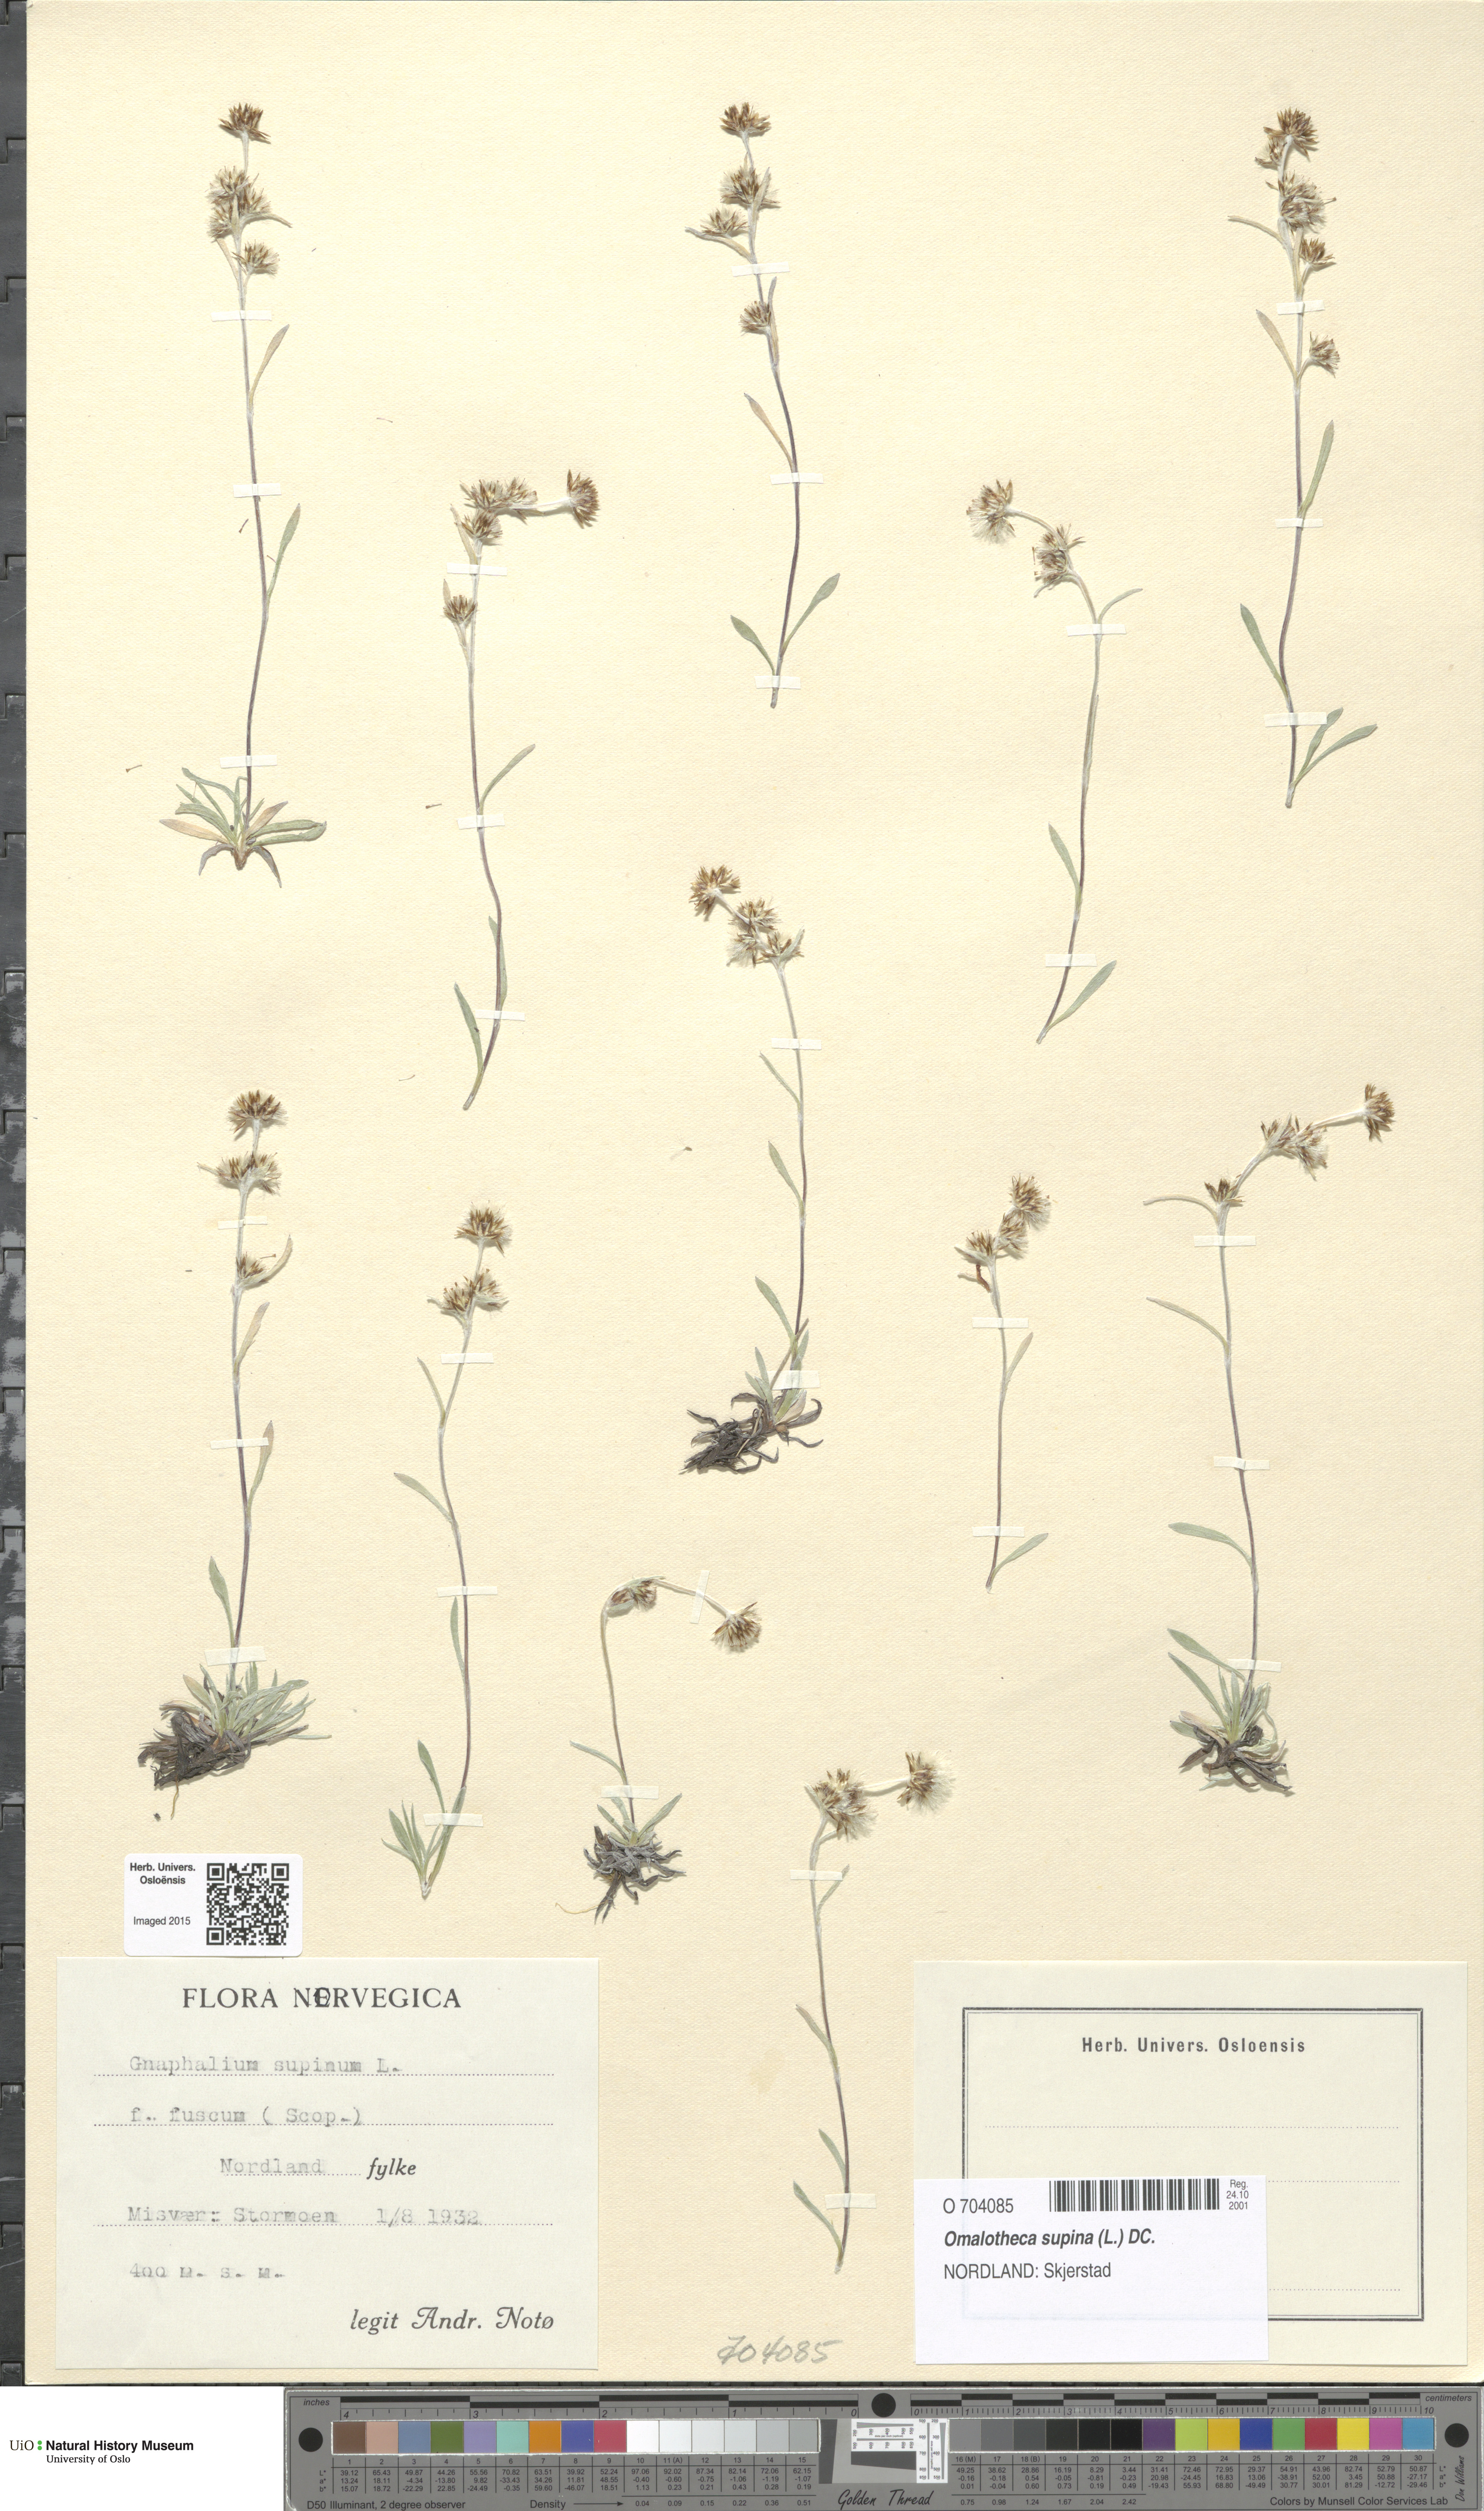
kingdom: Plantae
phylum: Tracheophyta
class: Magnoliopsida
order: Asterales
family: Asteraceae
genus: Omalotheca
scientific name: Omalotheca supina
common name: Alpine arctic-cudweed
